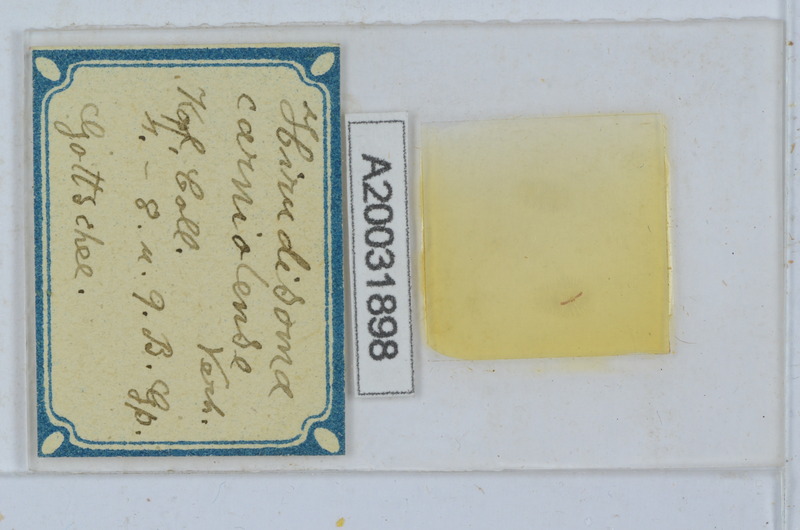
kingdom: Animalia
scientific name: Animalia
